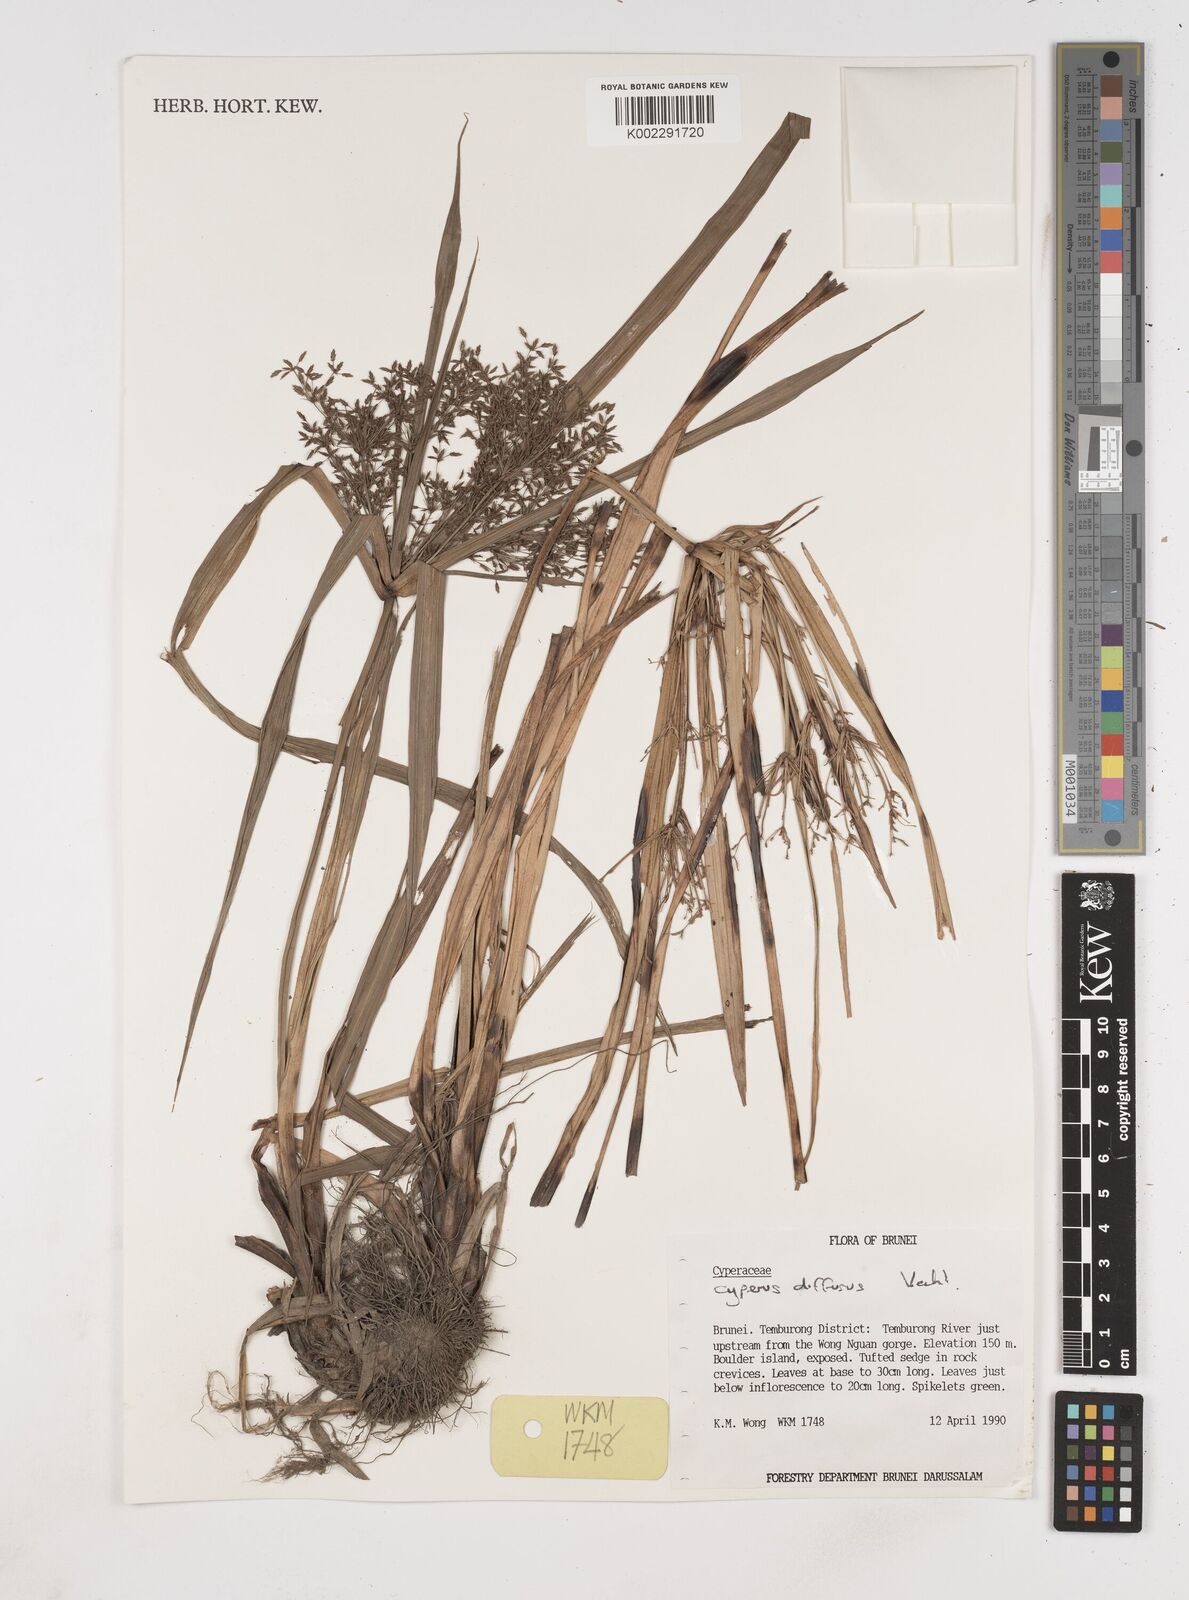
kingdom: Plantae
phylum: Tracheophyta
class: Liliopsida
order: Poales
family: Cyperaceae
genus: Cyperus
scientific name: Cyperus diffusus
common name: Dwarf umbrella grass
